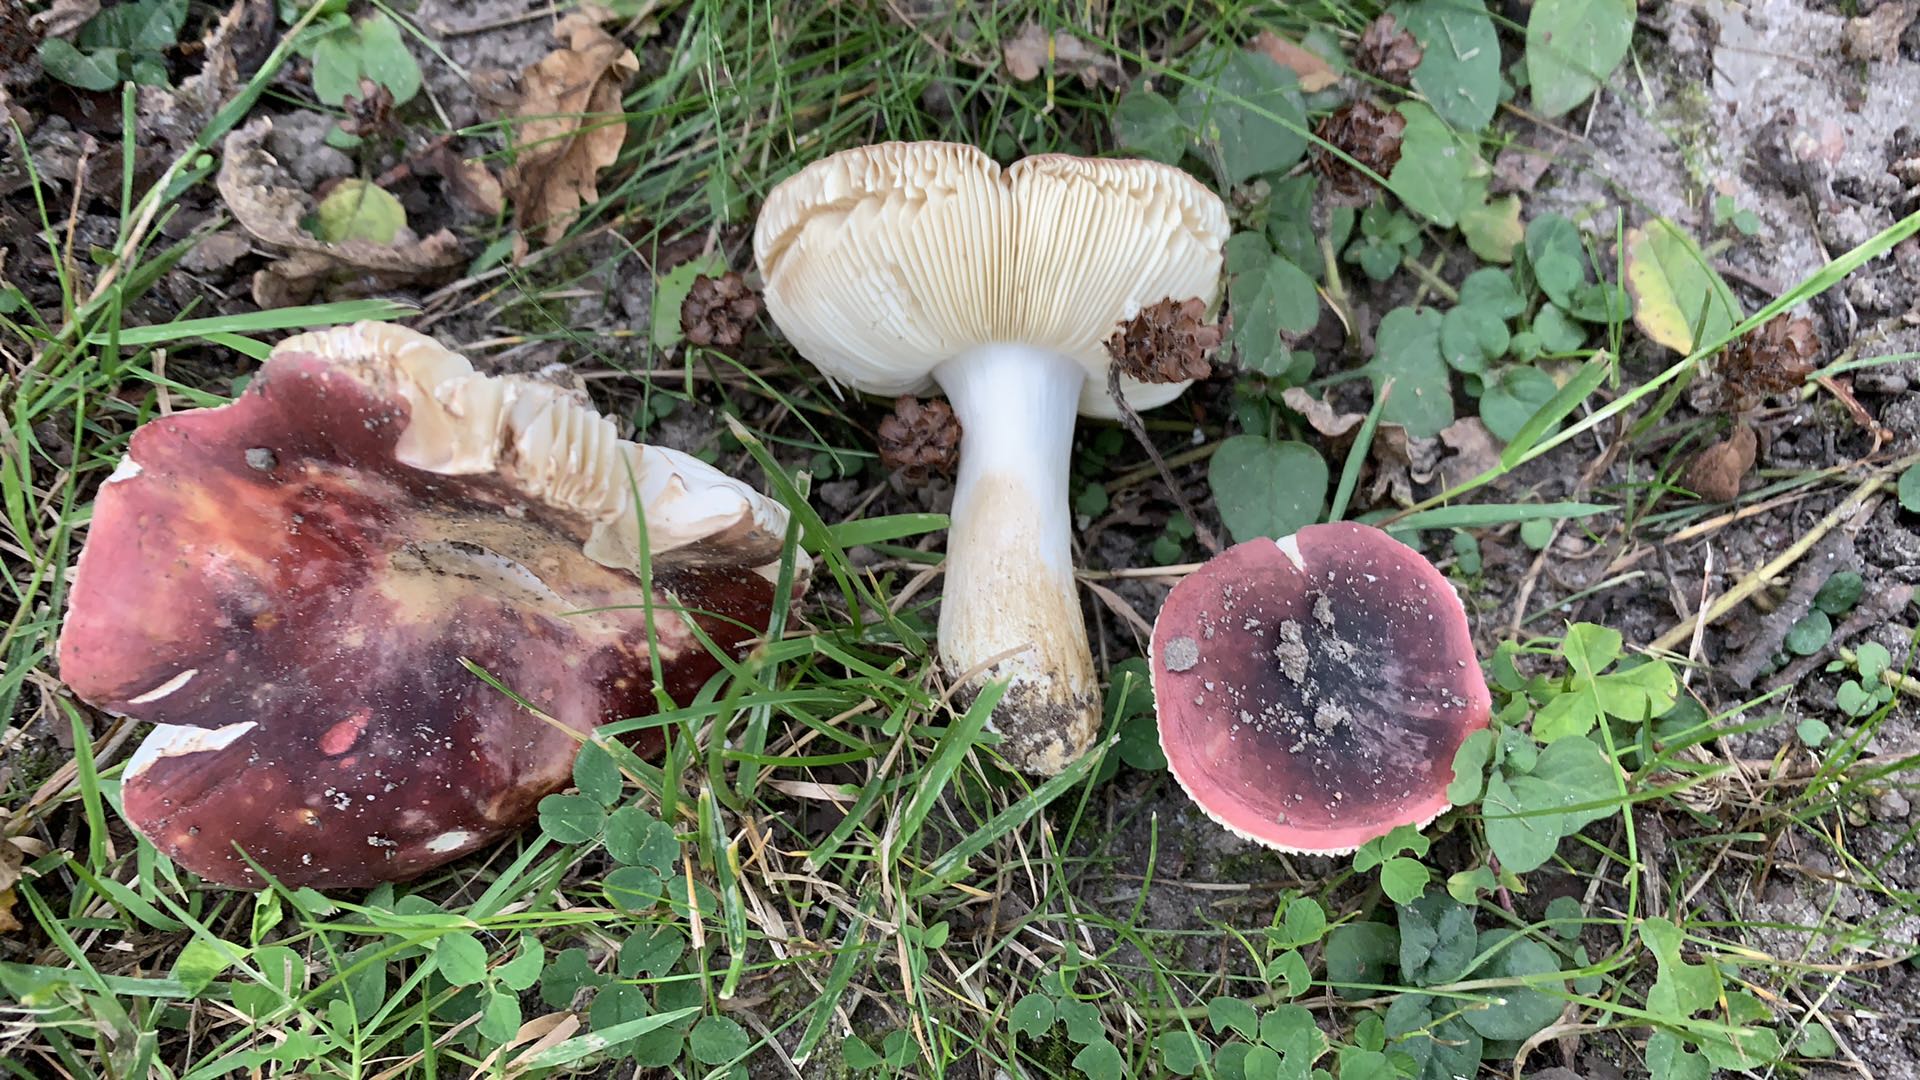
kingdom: Fungi
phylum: Basidiomycota
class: Agaricomycetes
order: Russulales
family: Russulaceae
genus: Russula
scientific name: Russula graveolens
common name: bugtet skørhat
